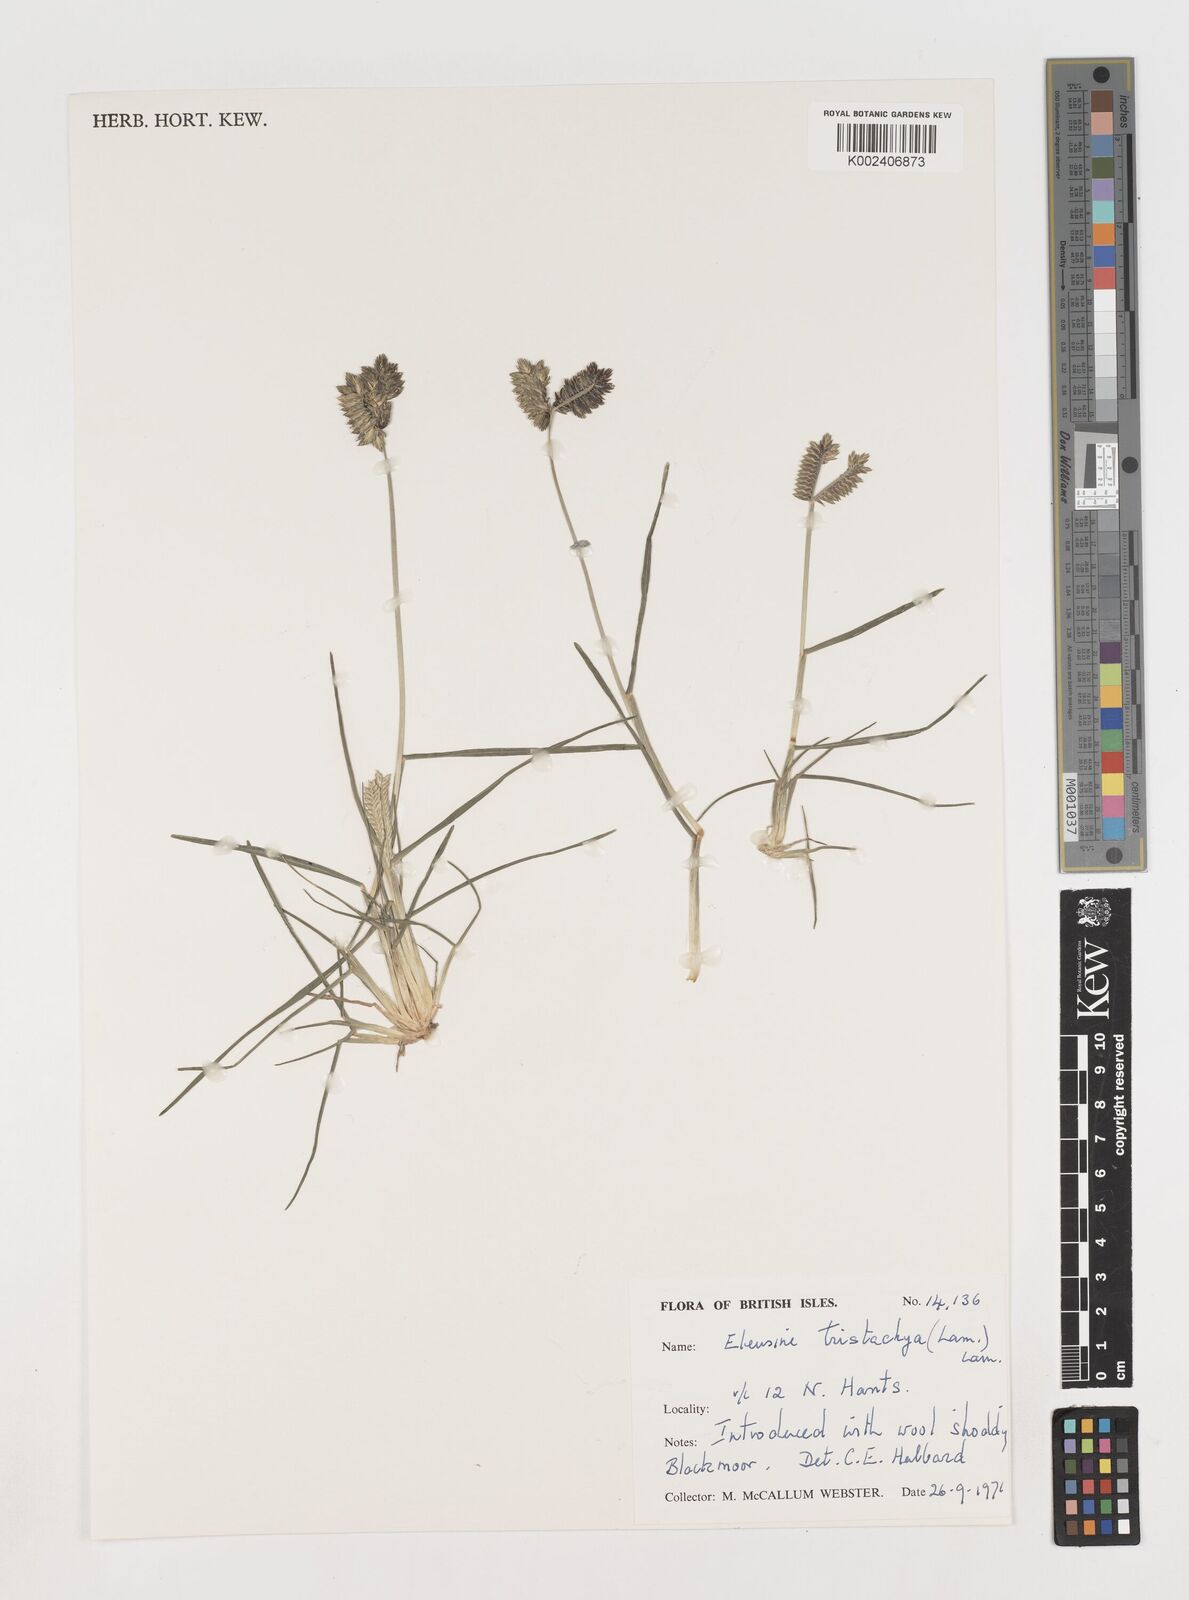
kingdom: Plantae
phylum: Tracheophyta
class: Liliopsida
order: Poales
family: Poaceae
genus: Eleusine
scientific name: Eleusine tristachya
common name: American yard-grass
